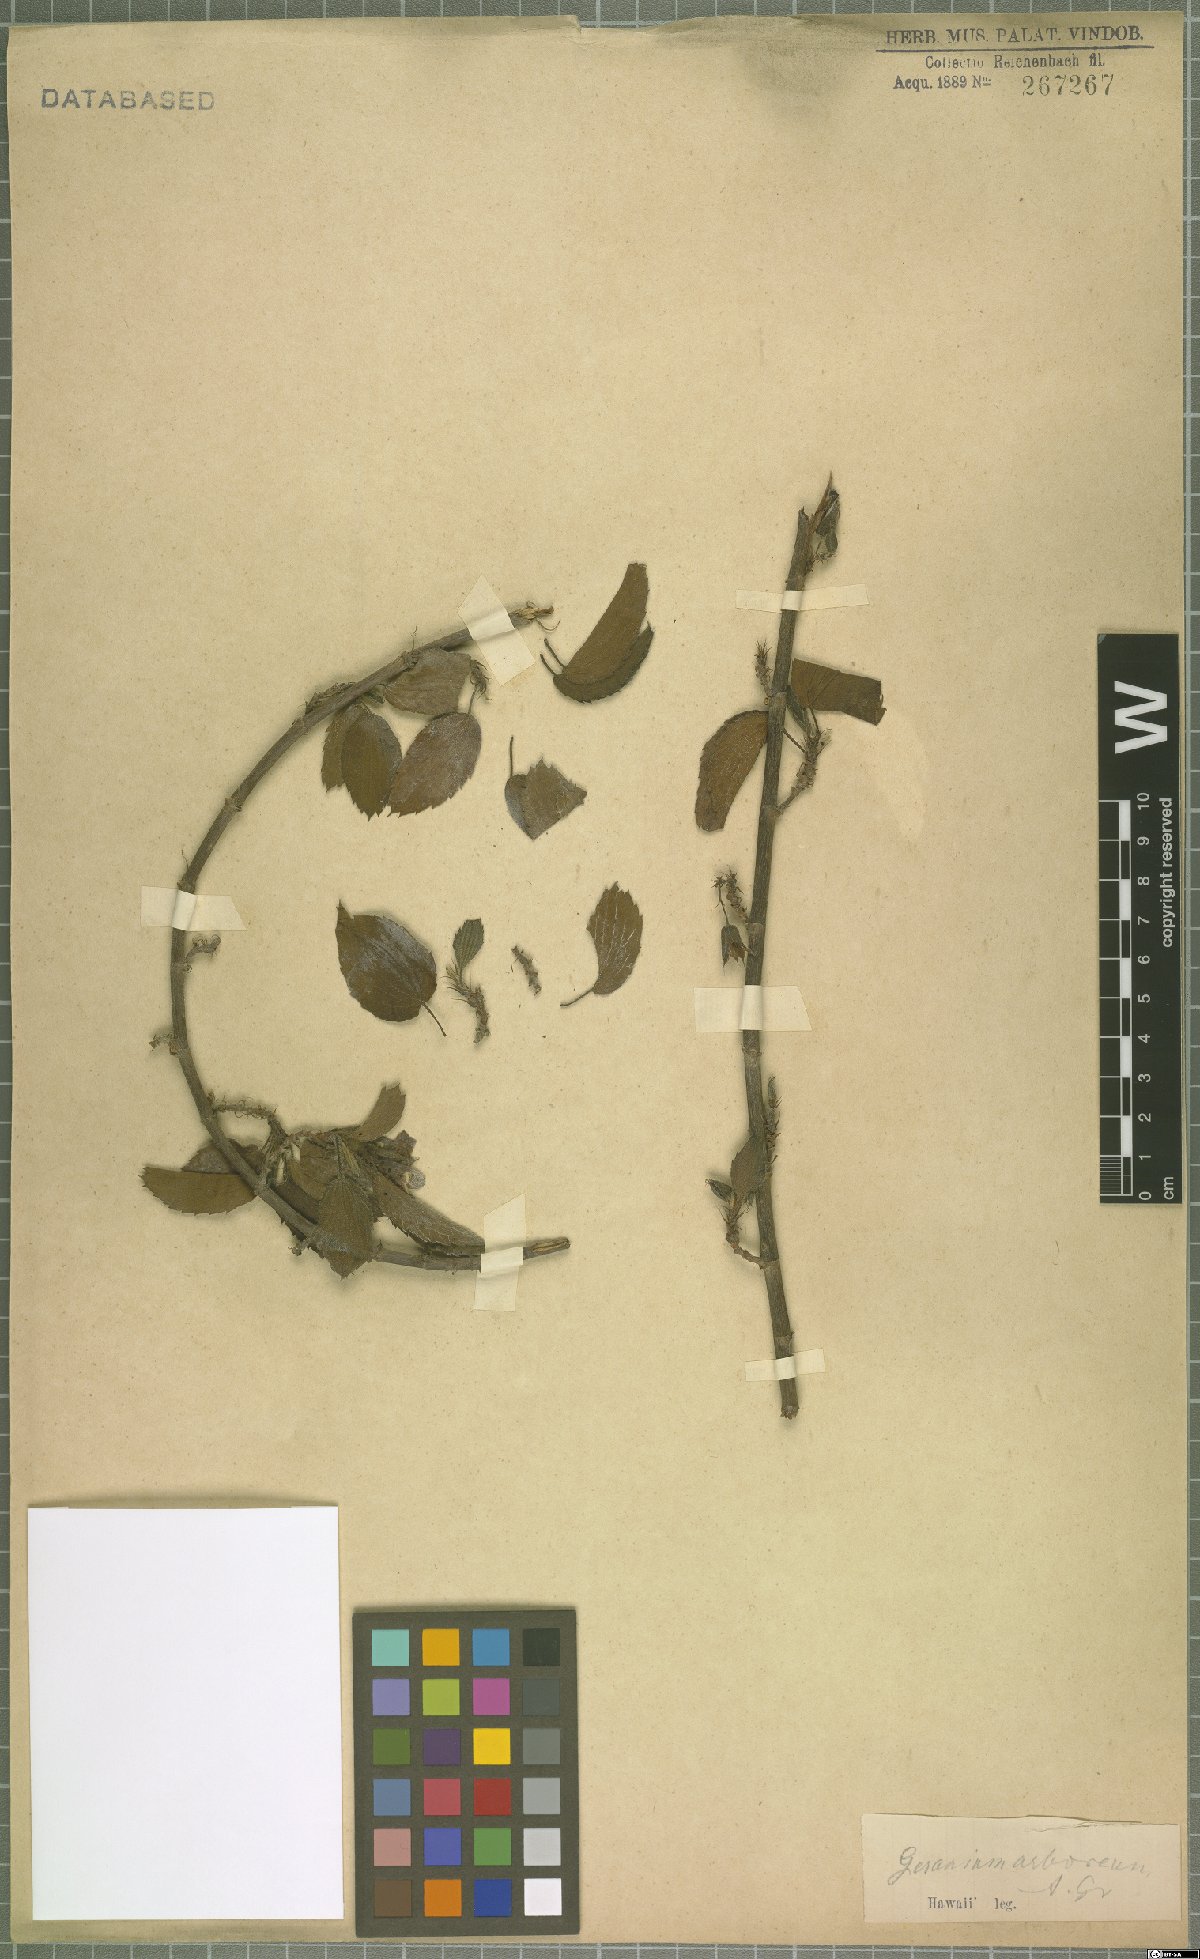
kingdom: Plantae
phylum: Tracheophyta
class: Magnoliopsida
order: Geraniales
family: Geraniaceae
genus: Geranium
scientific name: Geranium arboreum
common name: Hawaiian red-flower geranium
